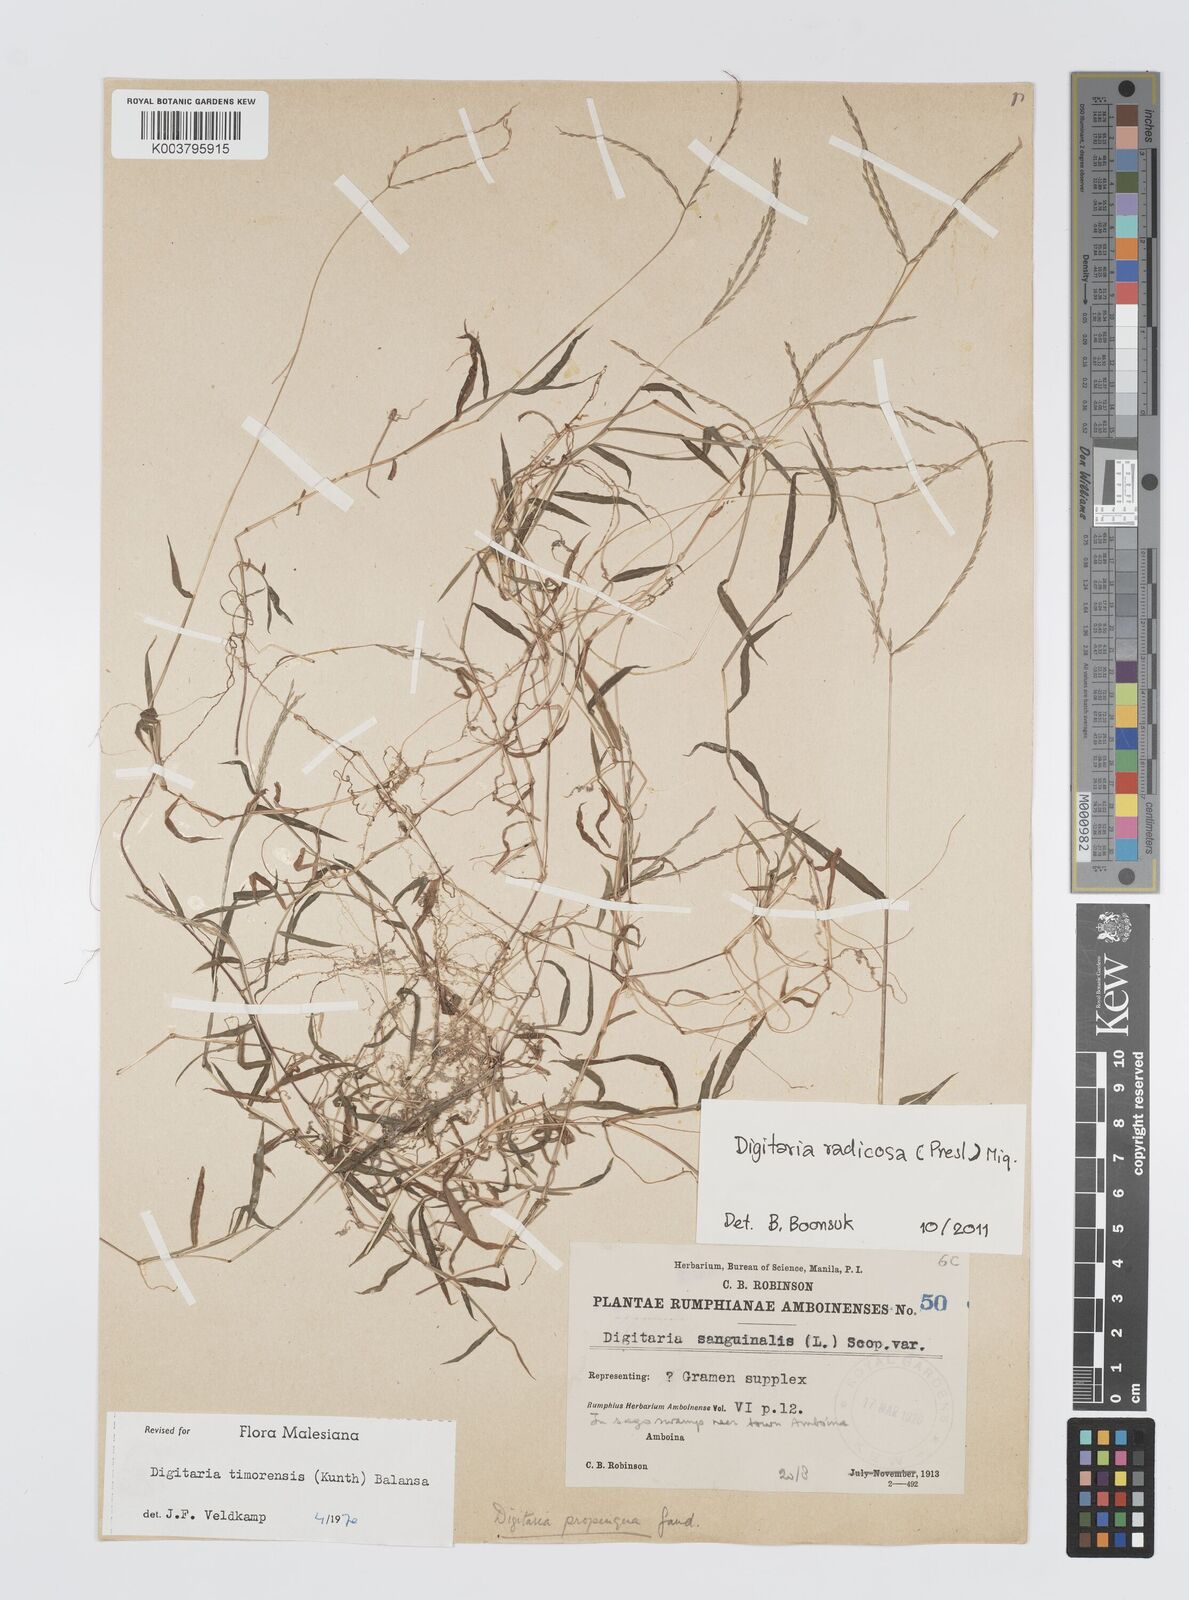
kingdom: Plantae
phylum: Tracheophyta
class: Liliopsida
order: Poales
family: Poaceae
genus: Digitaria
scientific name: Digitaria radicosa
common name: Trailing crabgrass
